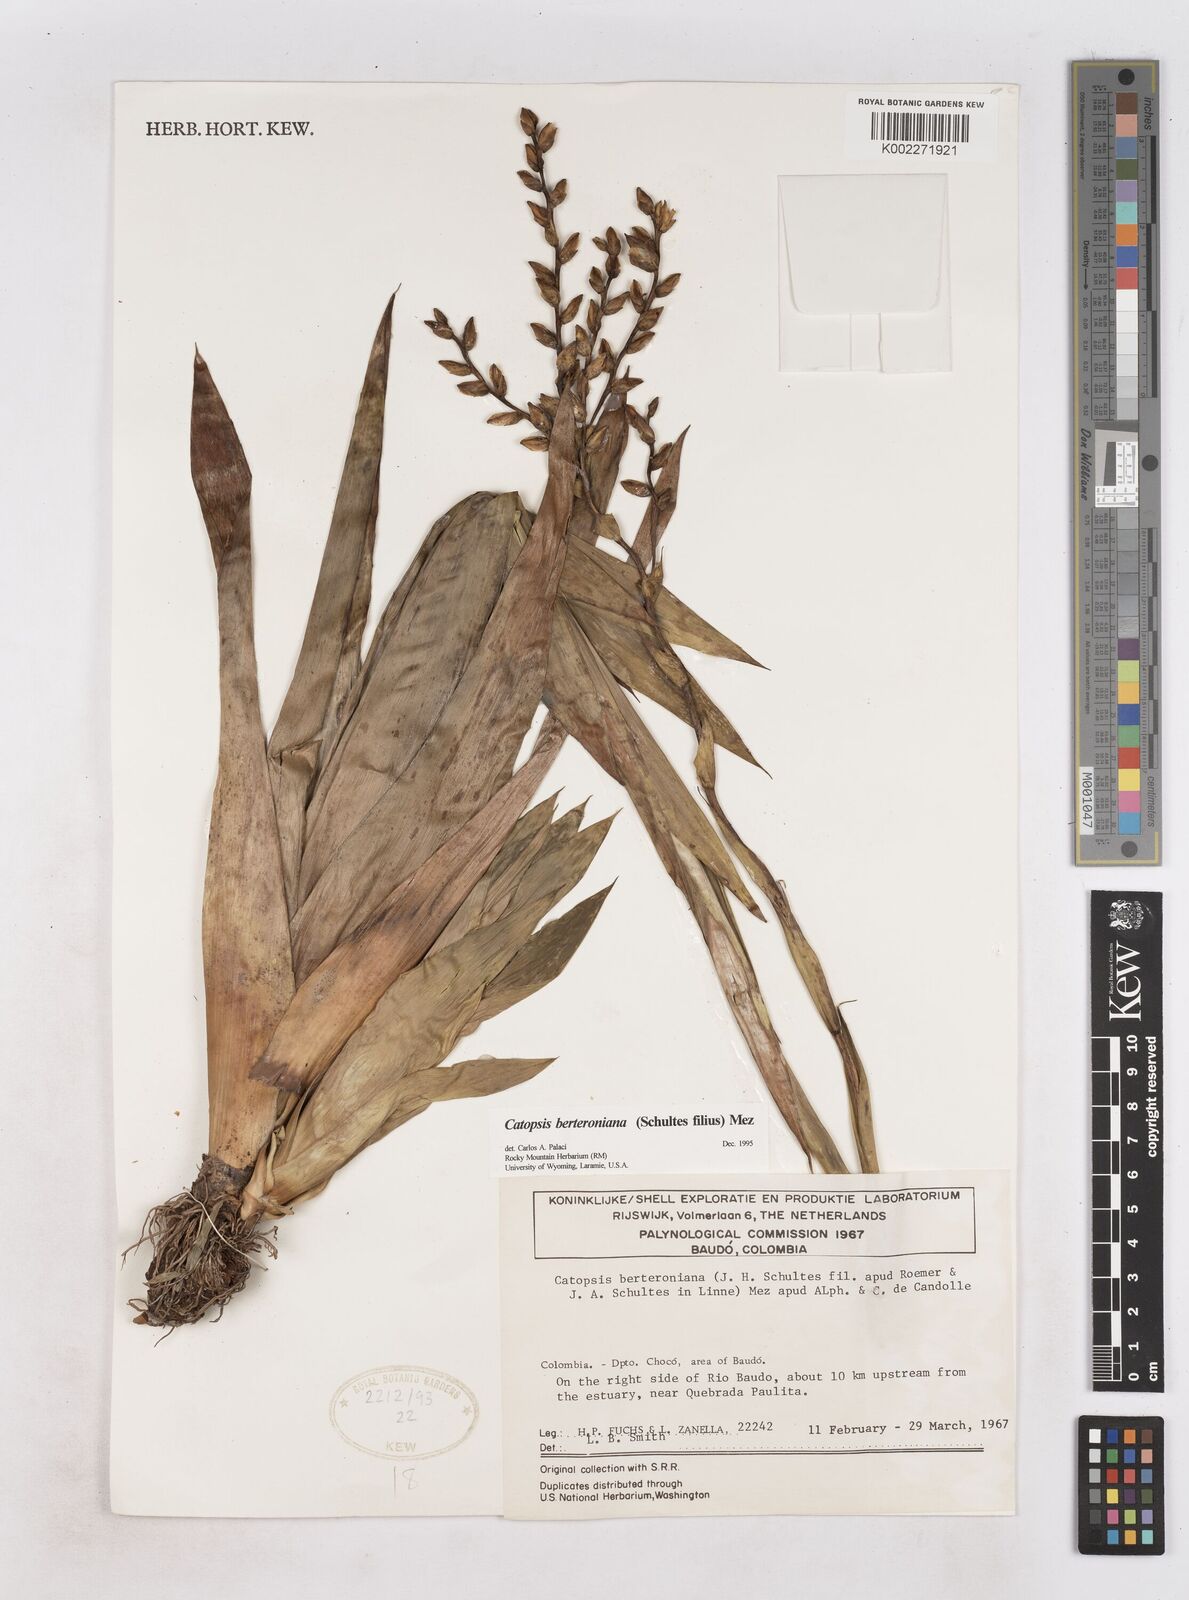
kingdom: Plantae
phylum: Tracheophyta
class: Liliopsida
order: Poales
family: Bromeliaceae
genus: Catopsis
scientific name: Catopsis berteroniana
